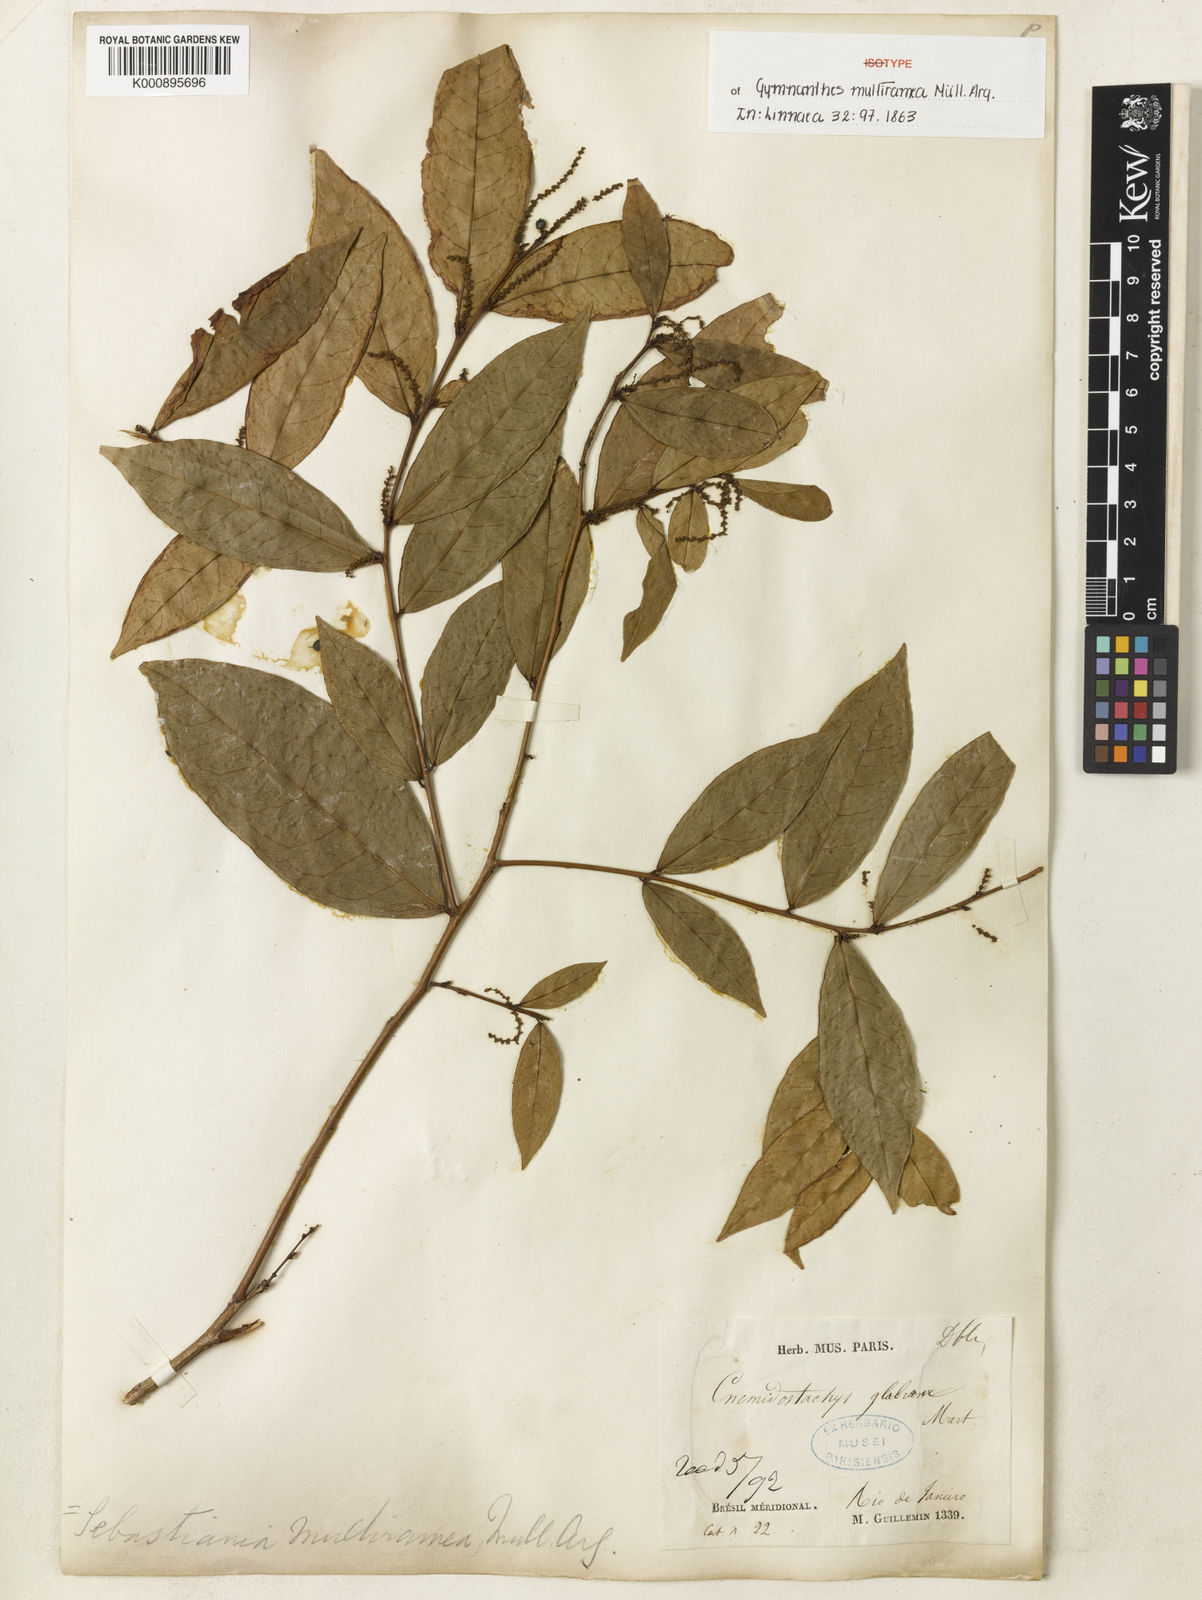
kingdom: Plantae
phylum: Tracheophyta
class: Magnoliopsida
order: Malpighiales
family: Euphorbiaceae
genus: Gymnanthes
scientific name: Gymnanthes glabrata
